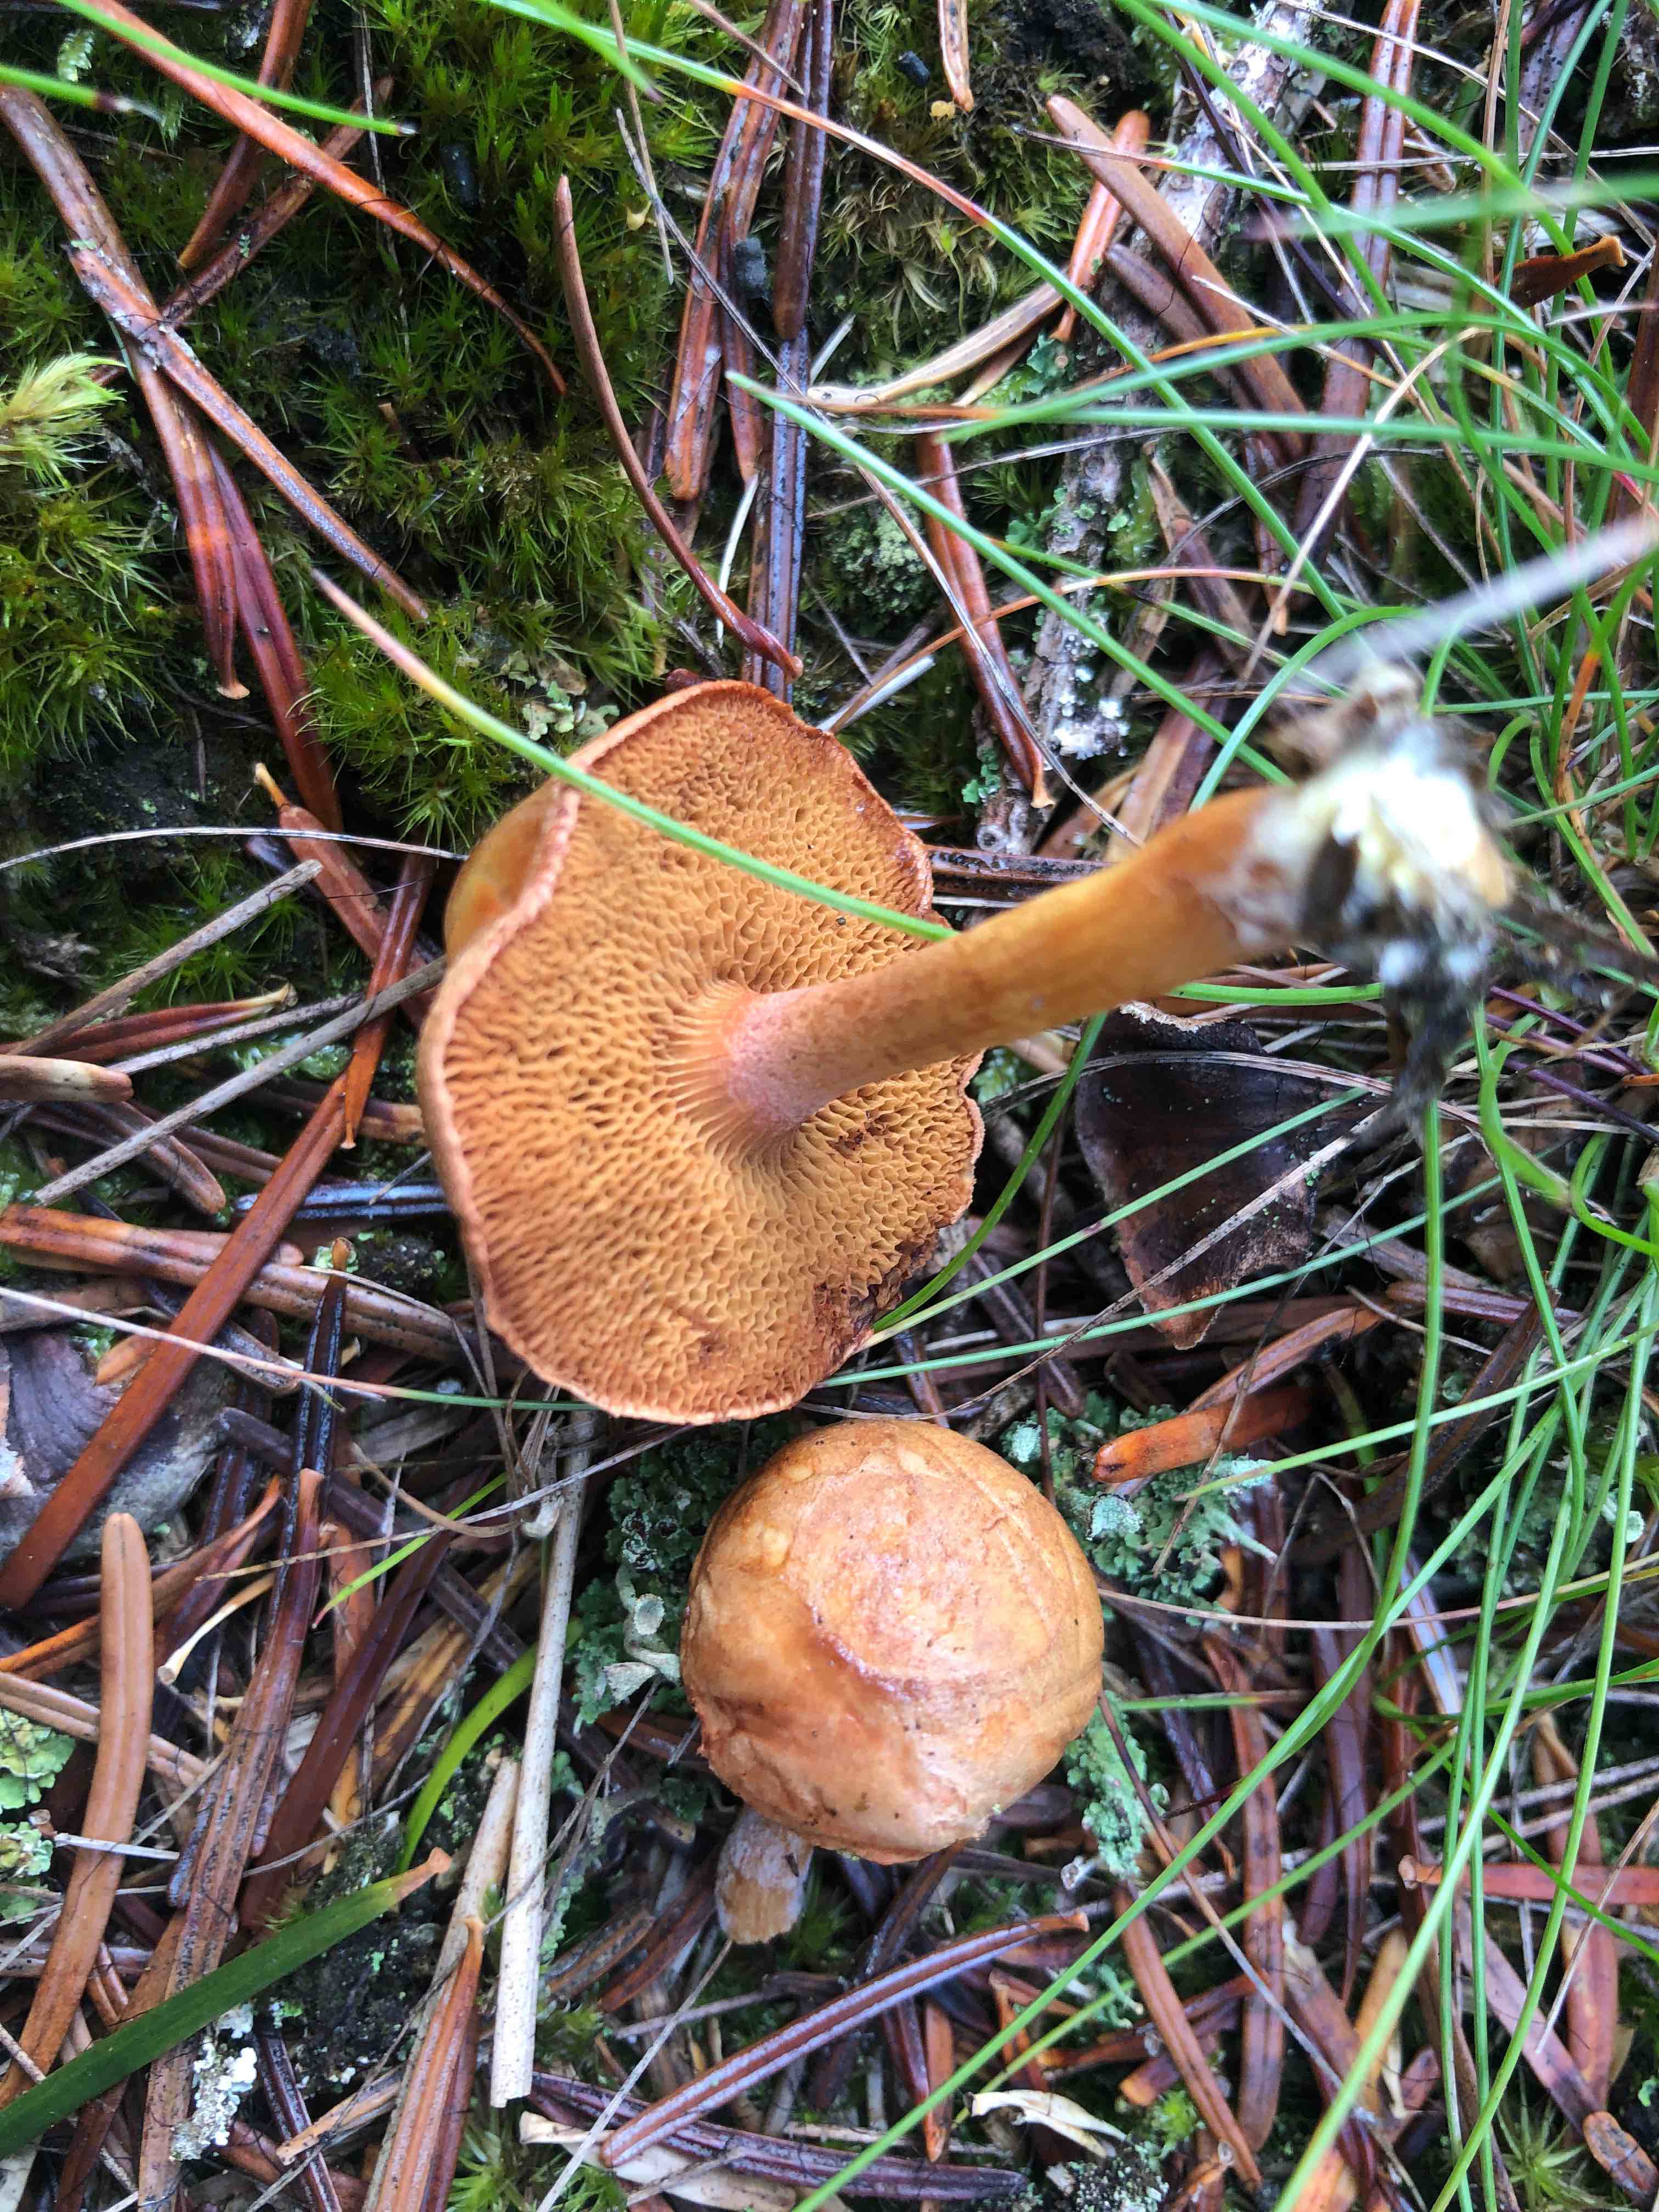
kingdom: Fungi
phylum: Basidiomycota
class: Agaricomycetes
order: Boletales
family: Boletaceae
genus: Chalciporus
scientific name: Chalciporus piperatus
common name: peberrørhat
